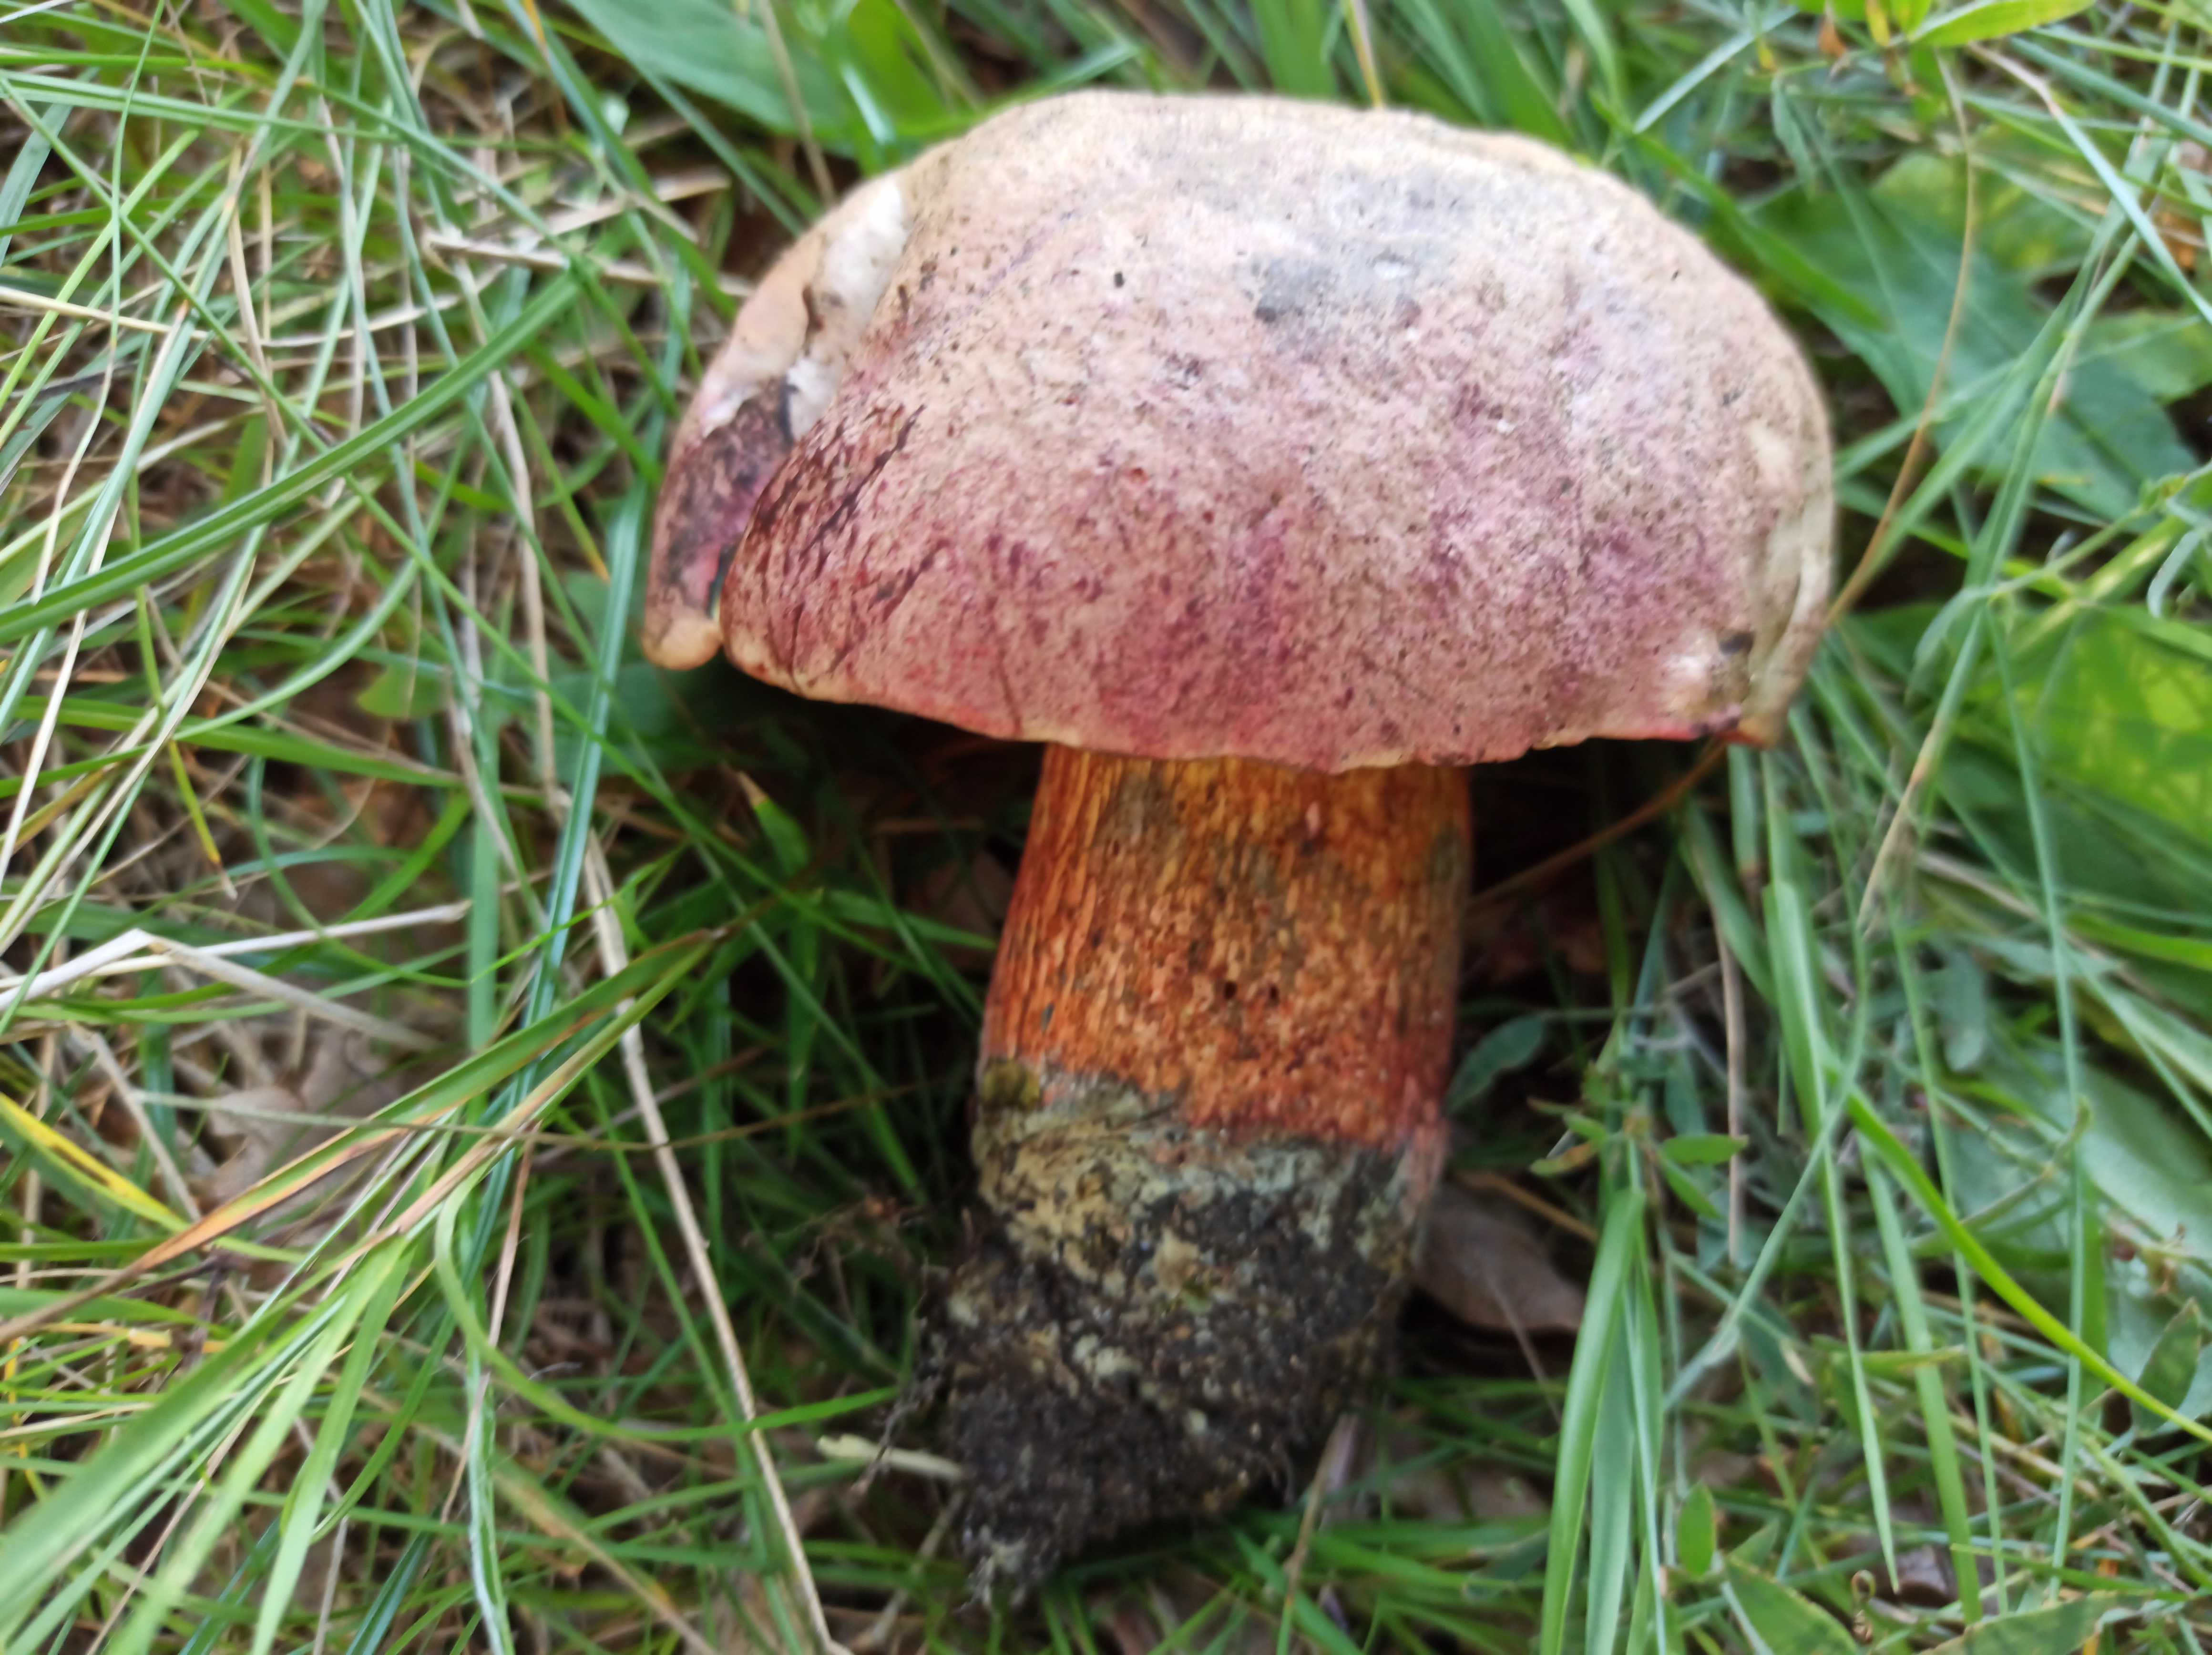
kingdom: Fungi
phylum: Basidiomycota
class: Agaricomycetes
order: Boletales
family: Boletaceae
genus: Rubroboletus
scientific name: Rubroboletus legaliae
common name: djævle-rørhat
